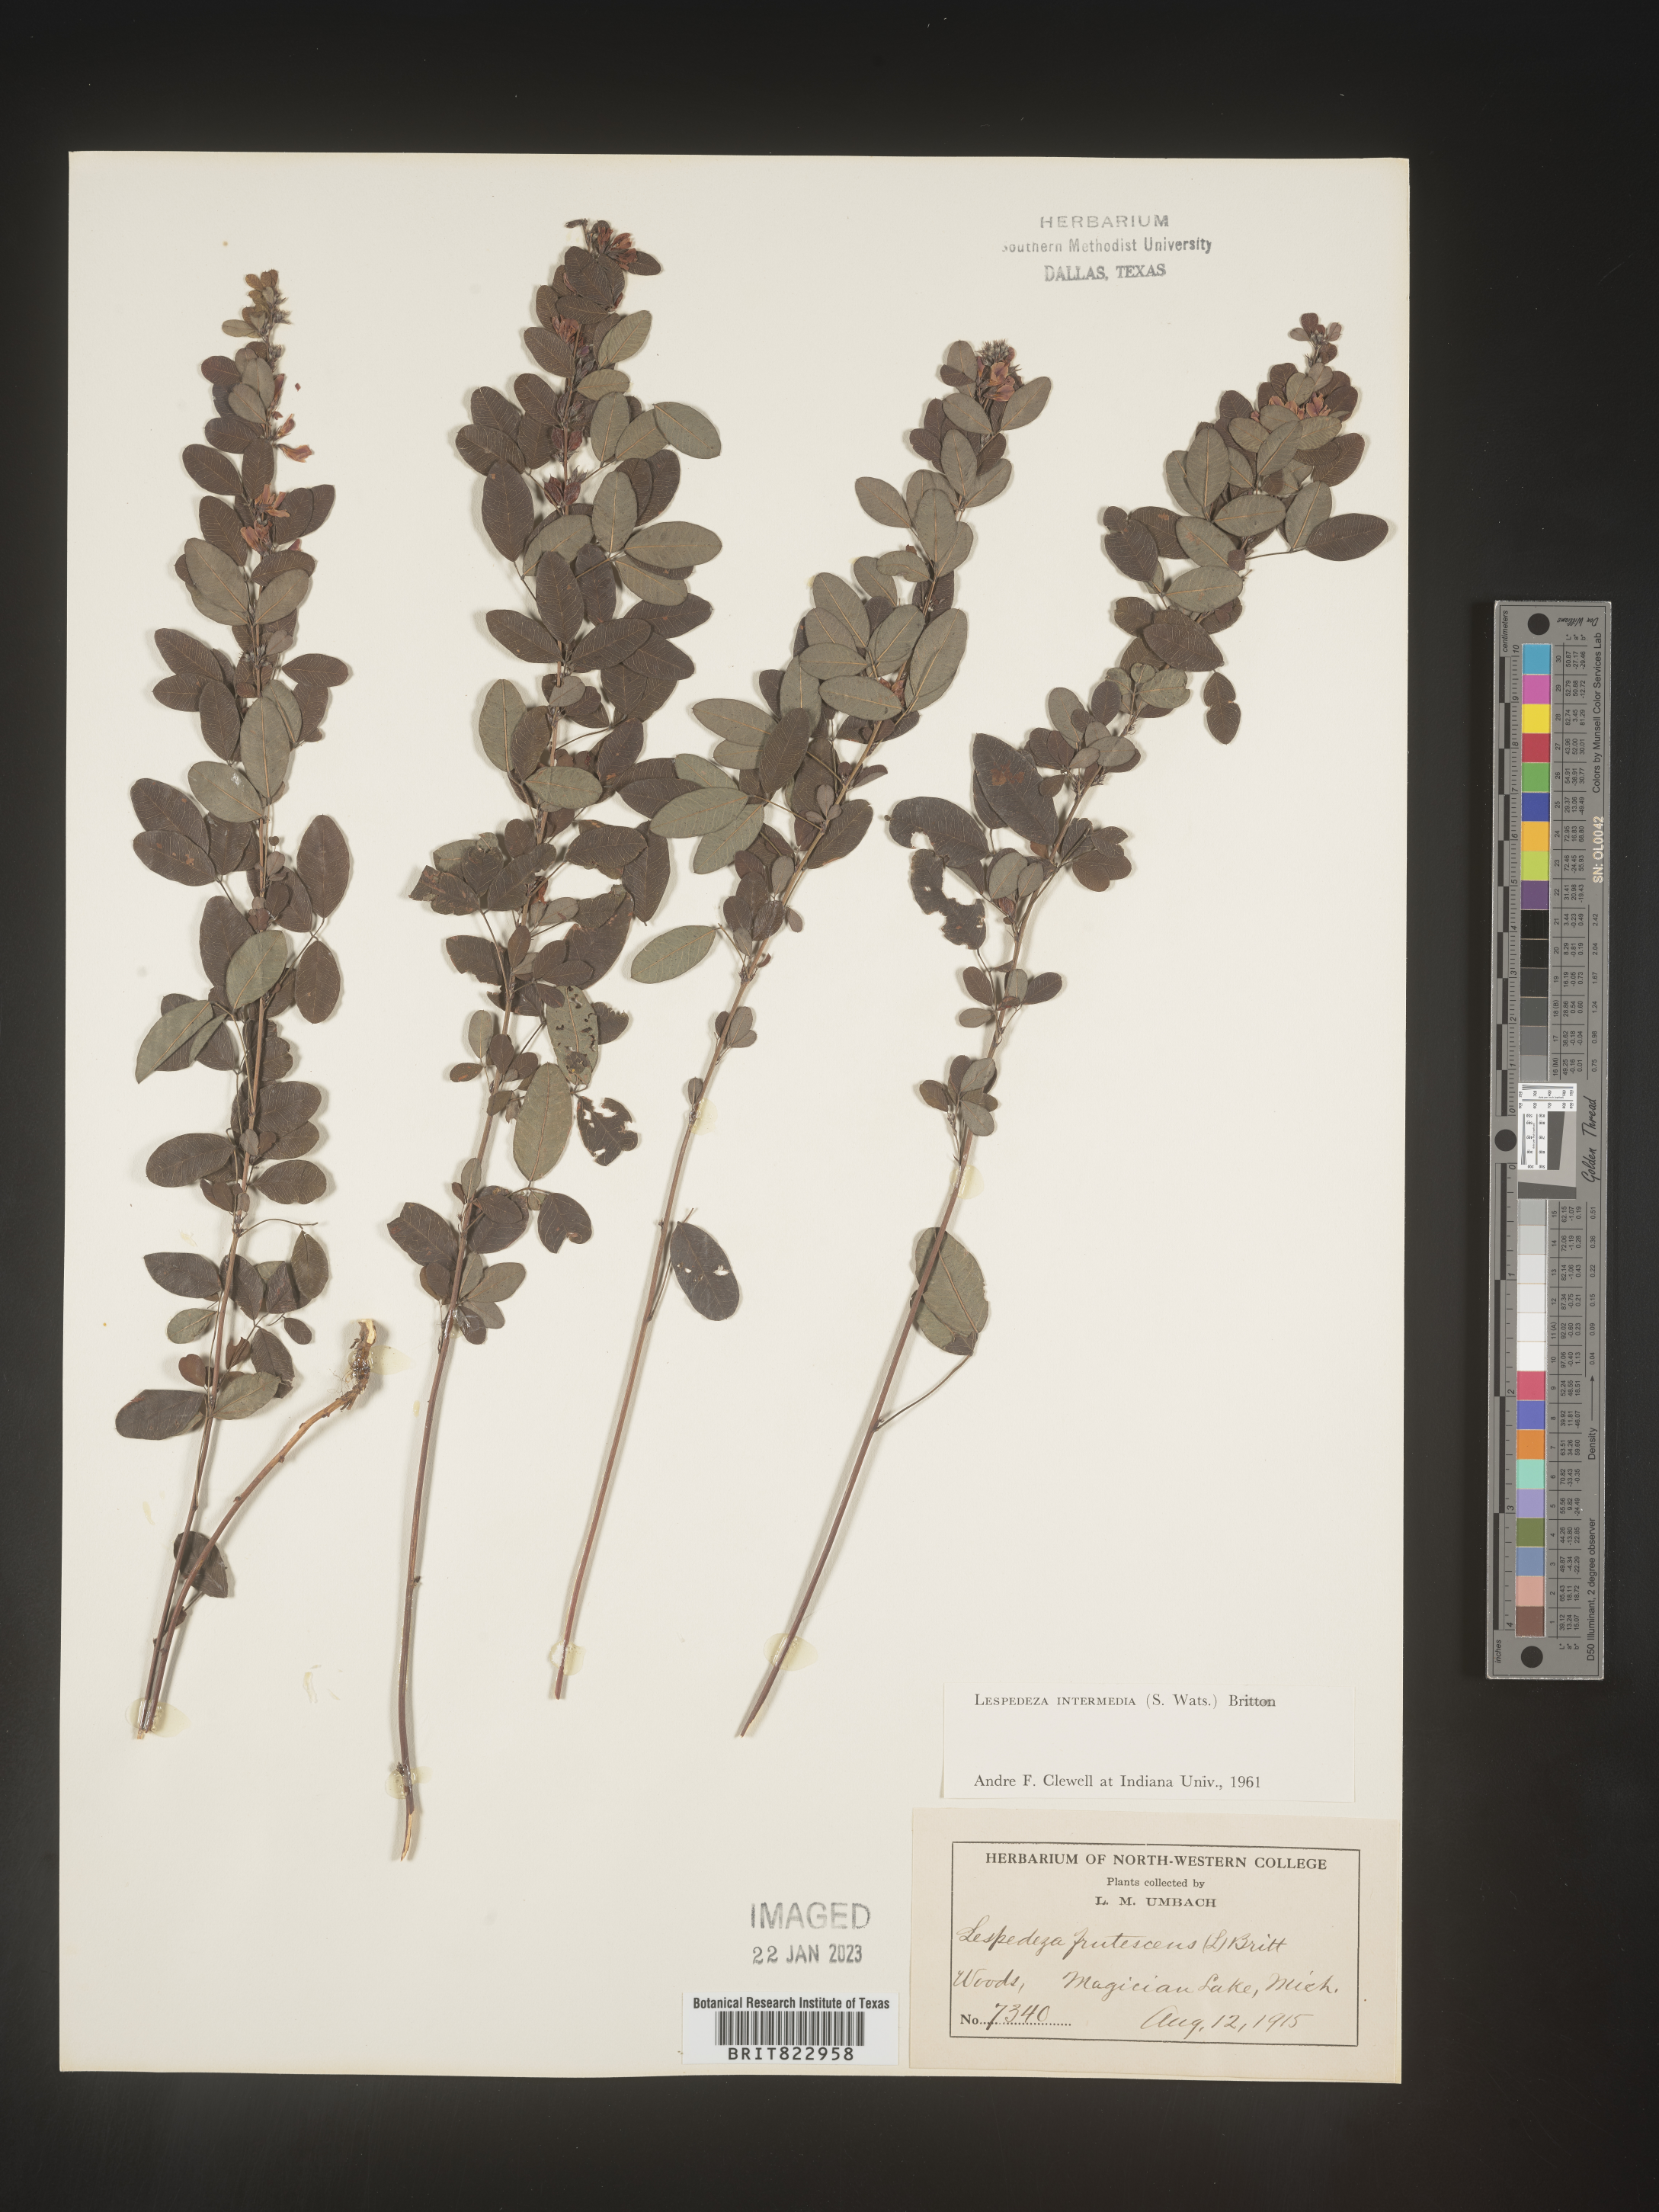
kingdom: Plantae
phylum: Tracheophyta
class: Magnoliopsida
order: Fabales
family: Fabaceae
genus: Lespedeza
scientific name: Lespedeza
